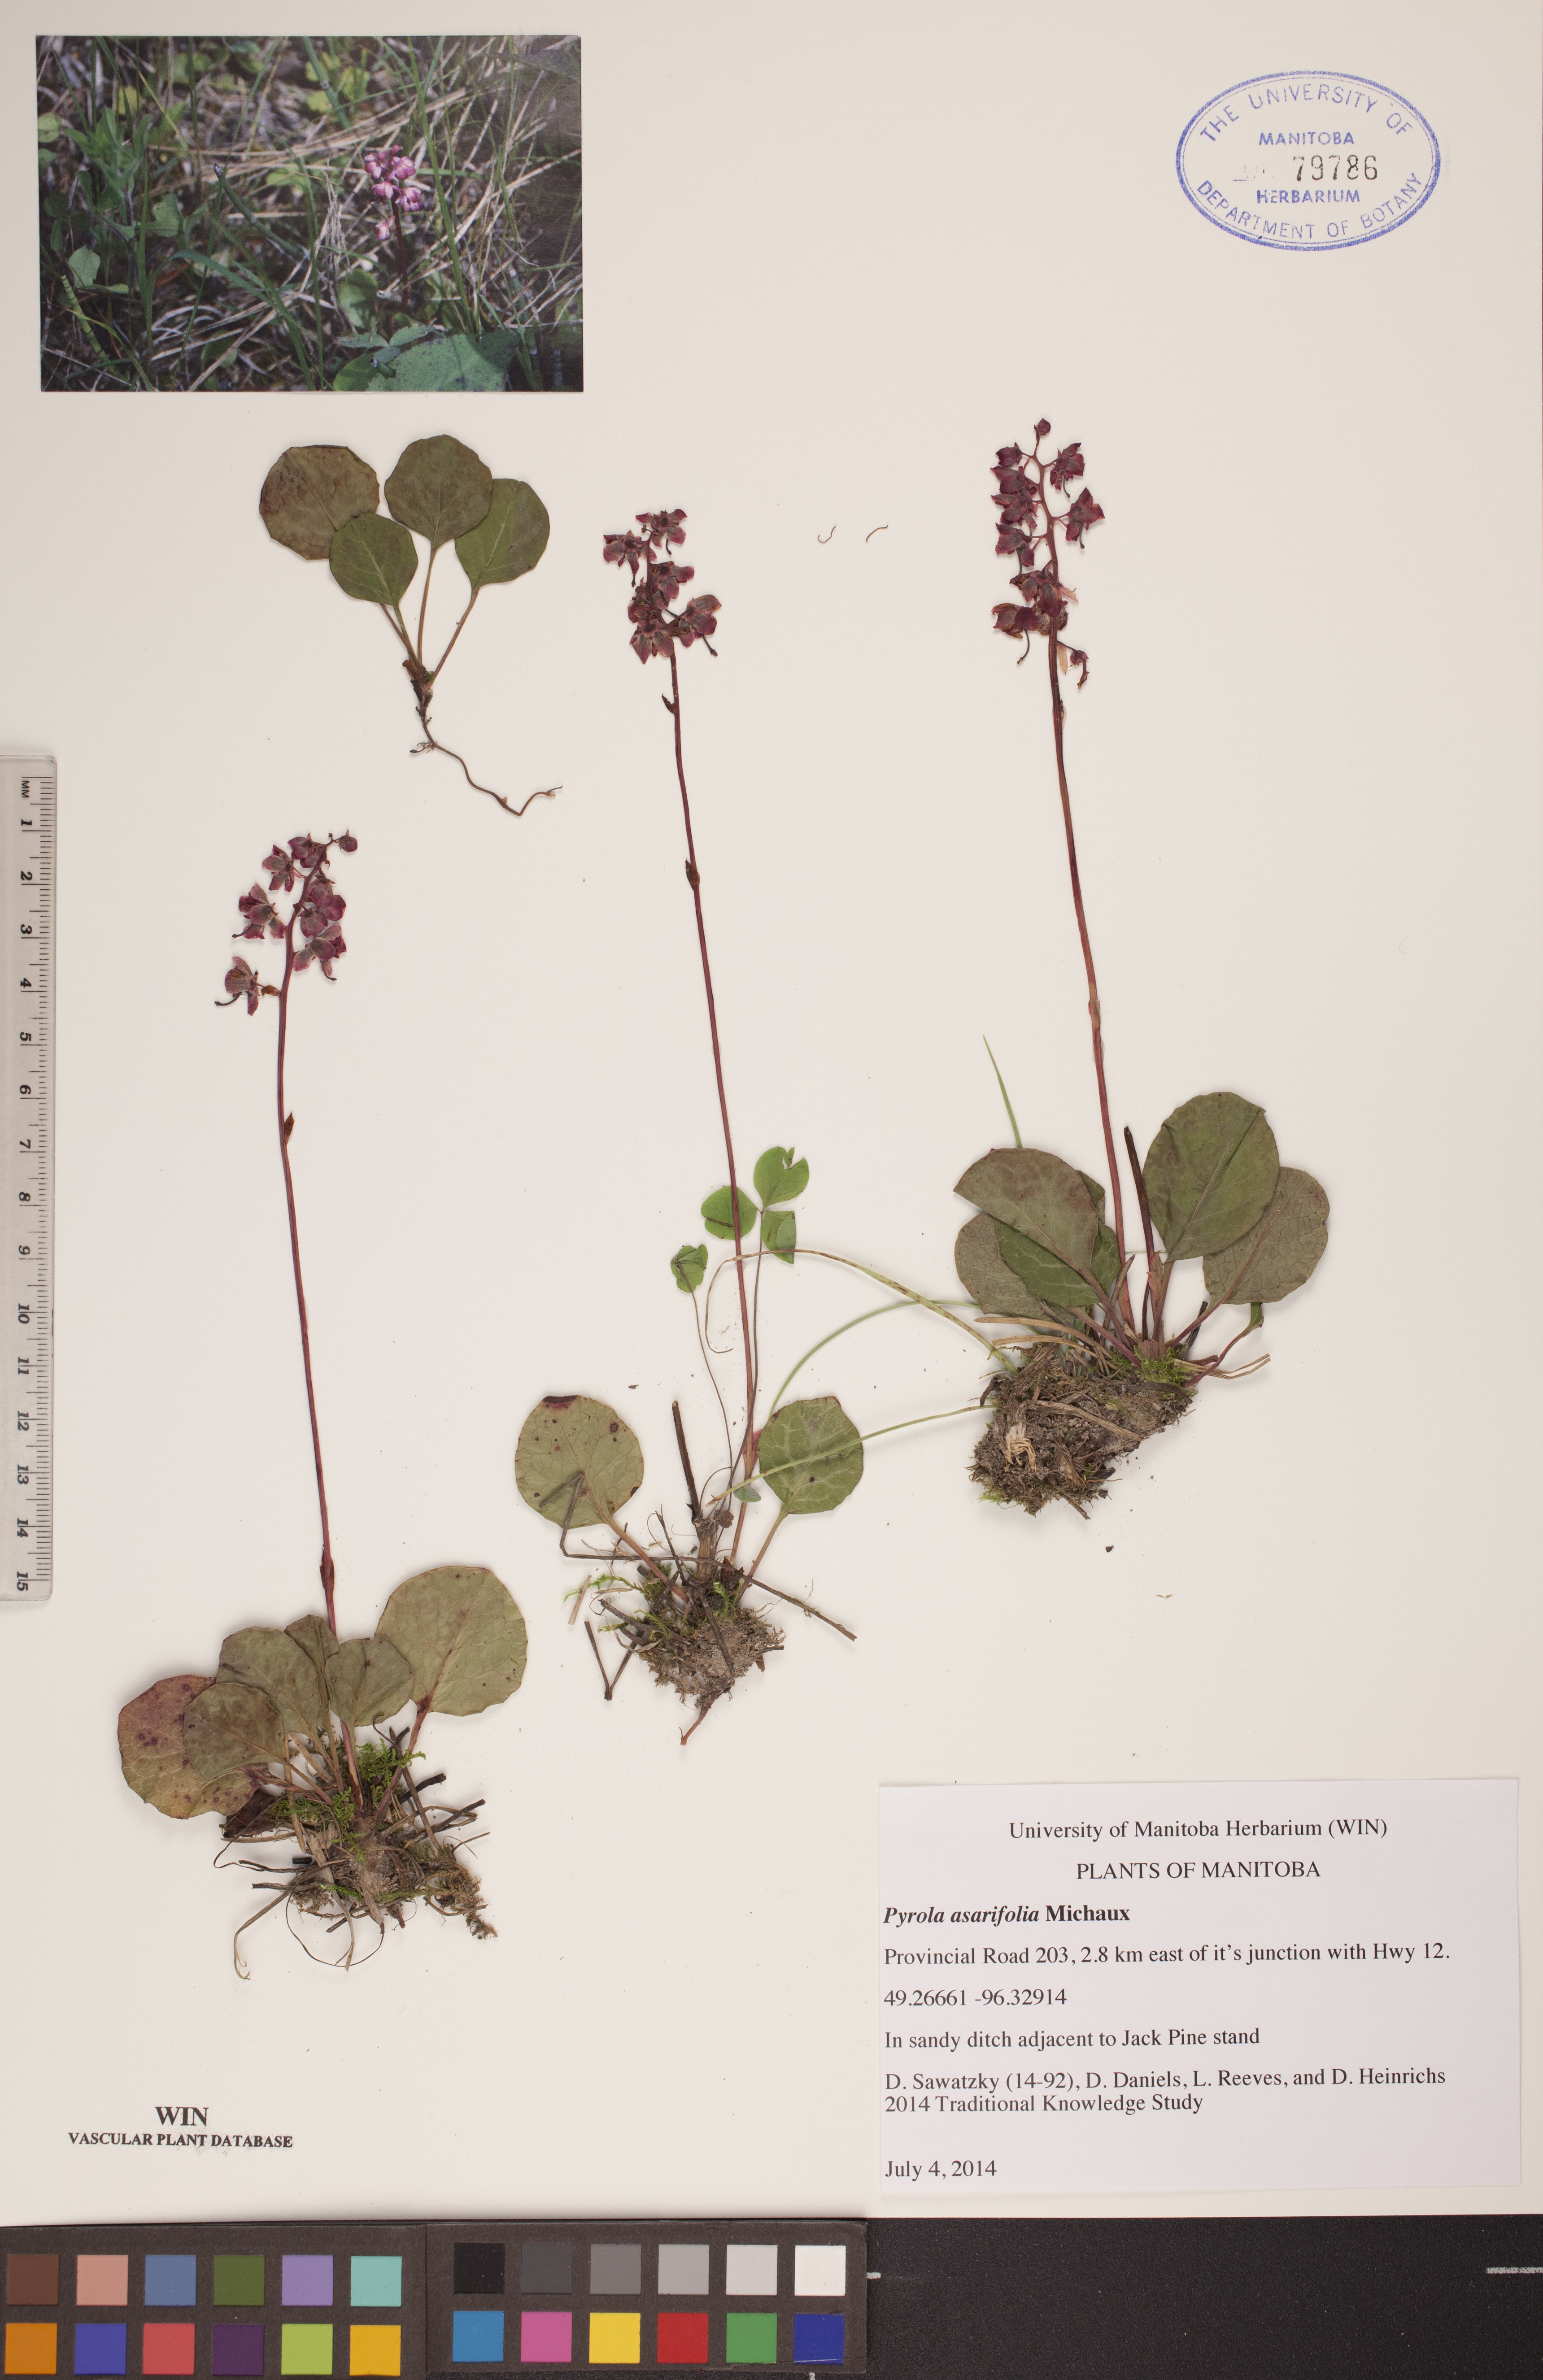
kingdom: Plantae
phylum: Tracheophyta
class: Magnoliopsida
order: Ericales
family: Ericaceae
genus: Pyrola
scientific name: Pyrola asarifolia
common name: Bog wintergreen
